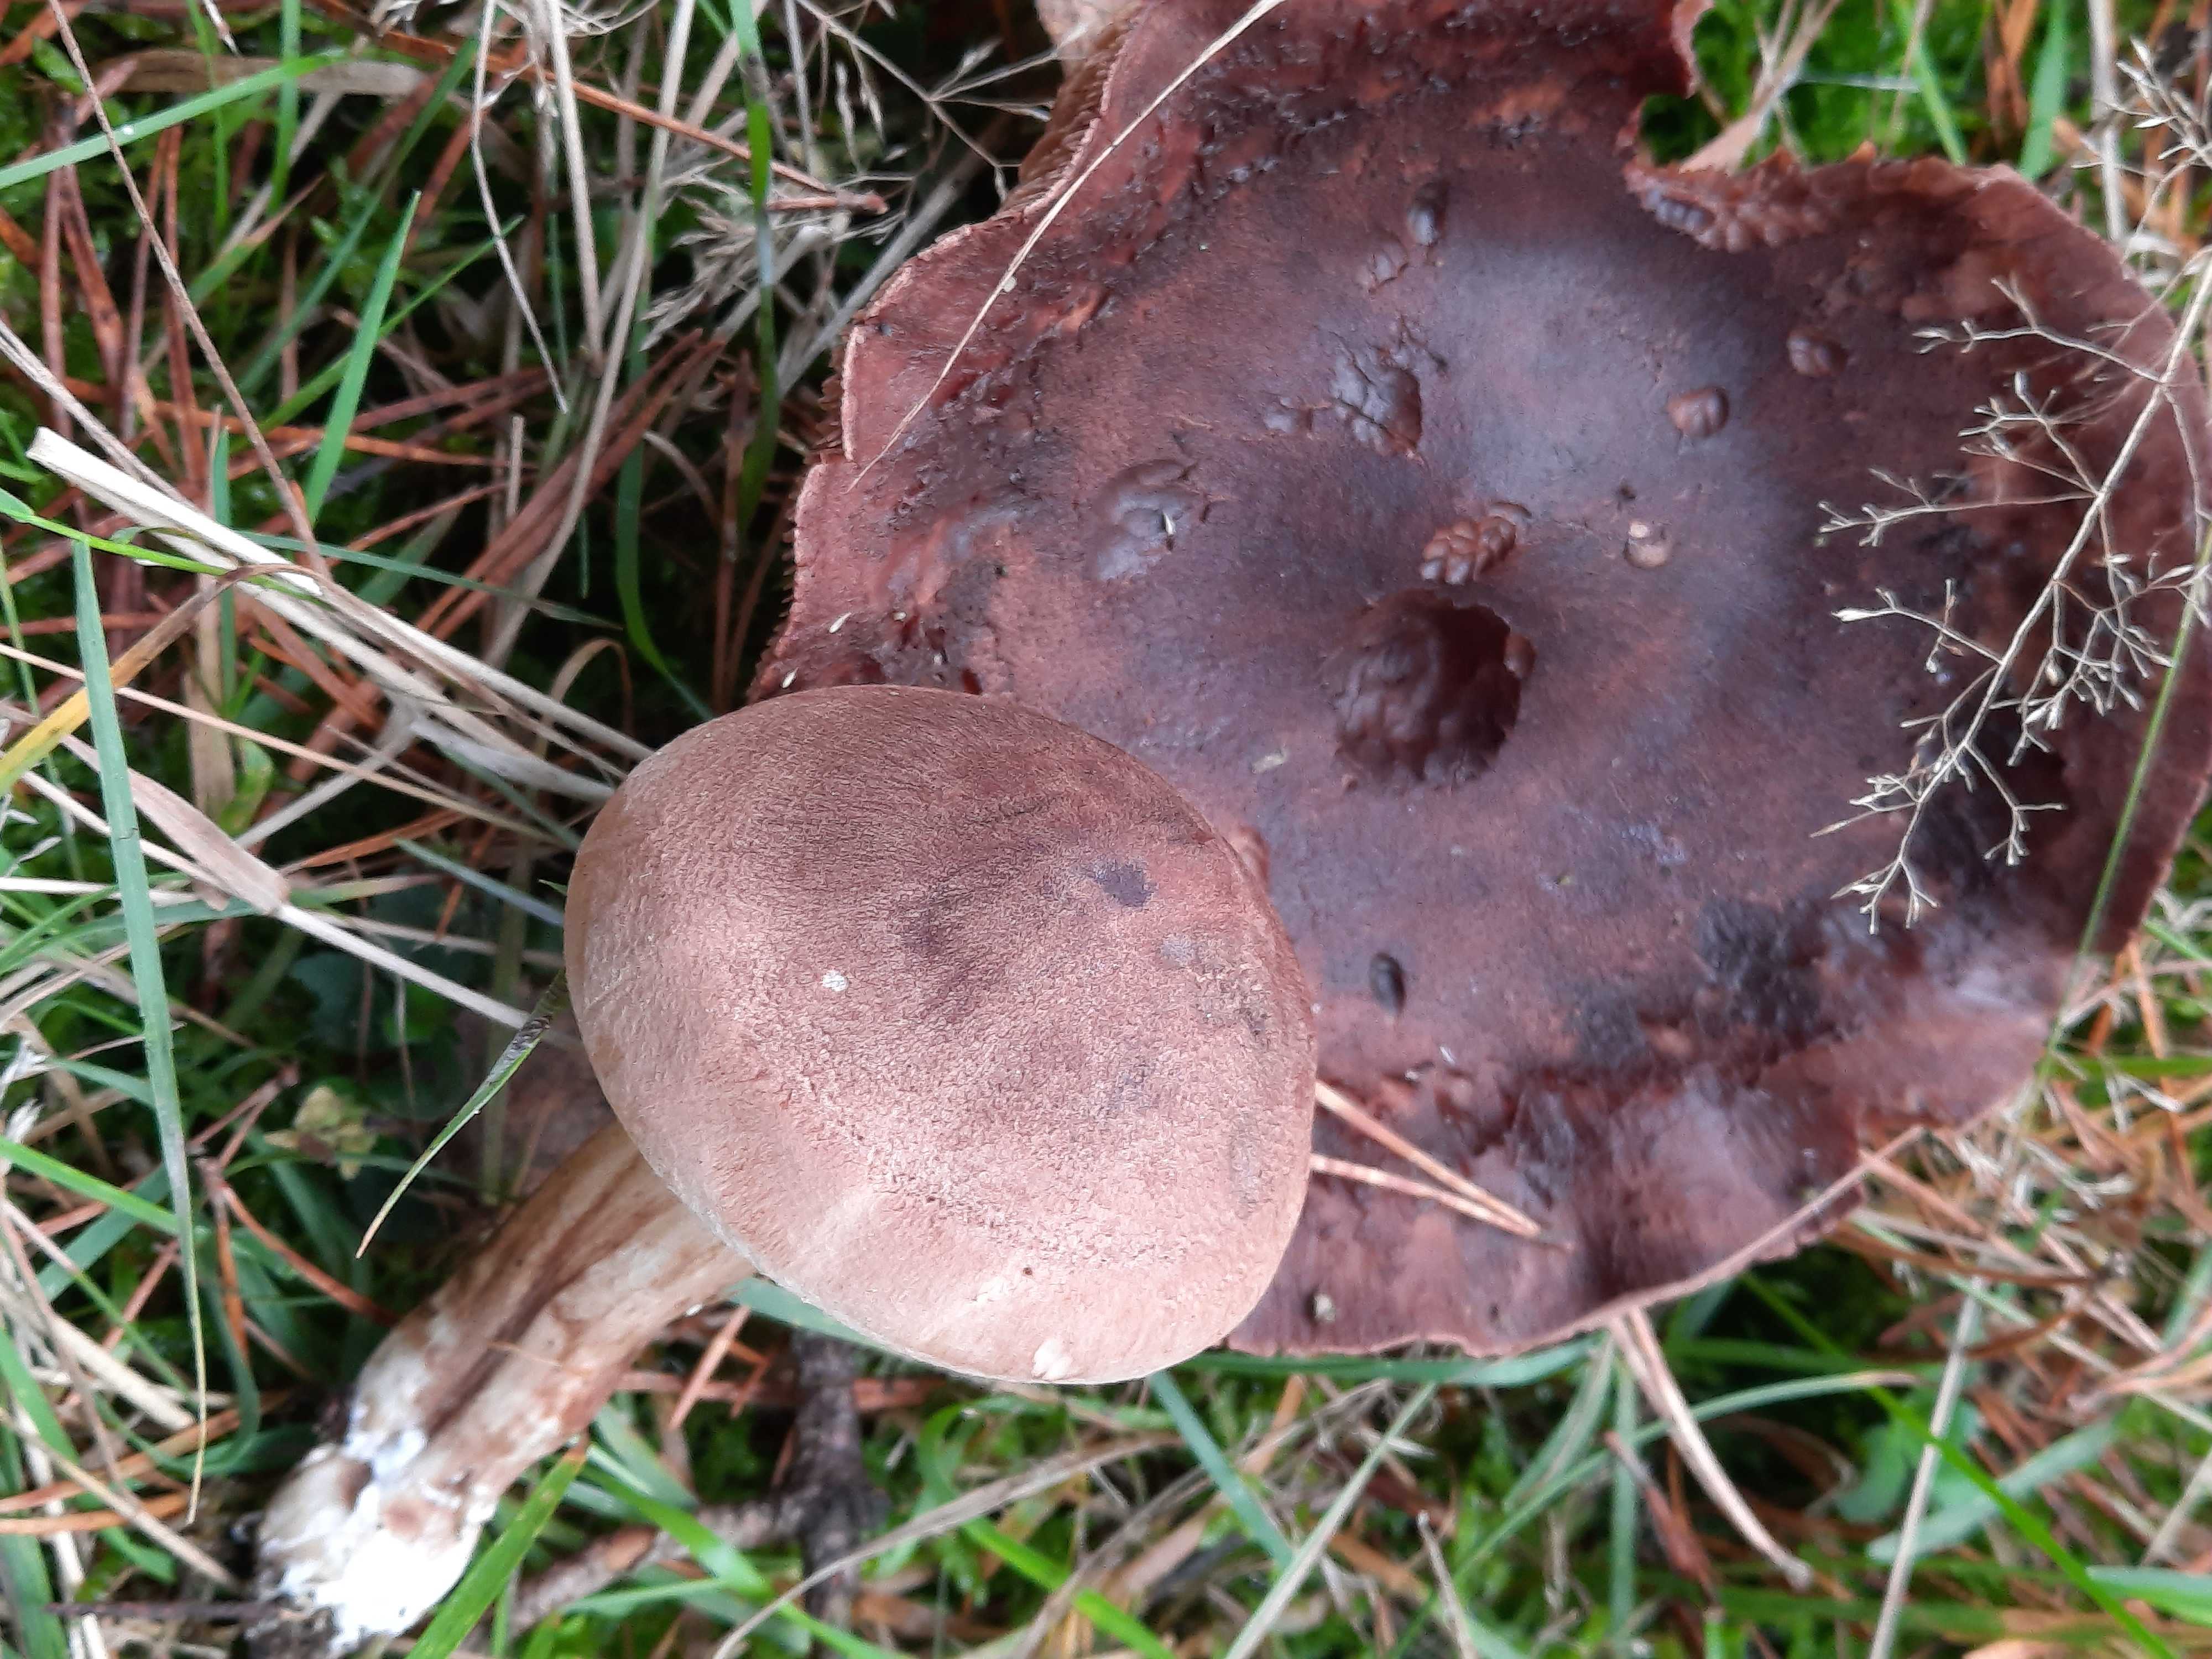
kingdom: Fungi
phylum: Basidiomycota
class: Agaricomycetes
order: Agaricales
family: Tricholomataceae
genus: Tricholoma
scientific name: Tricholoma imbricatum
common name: skællet ridderhat
